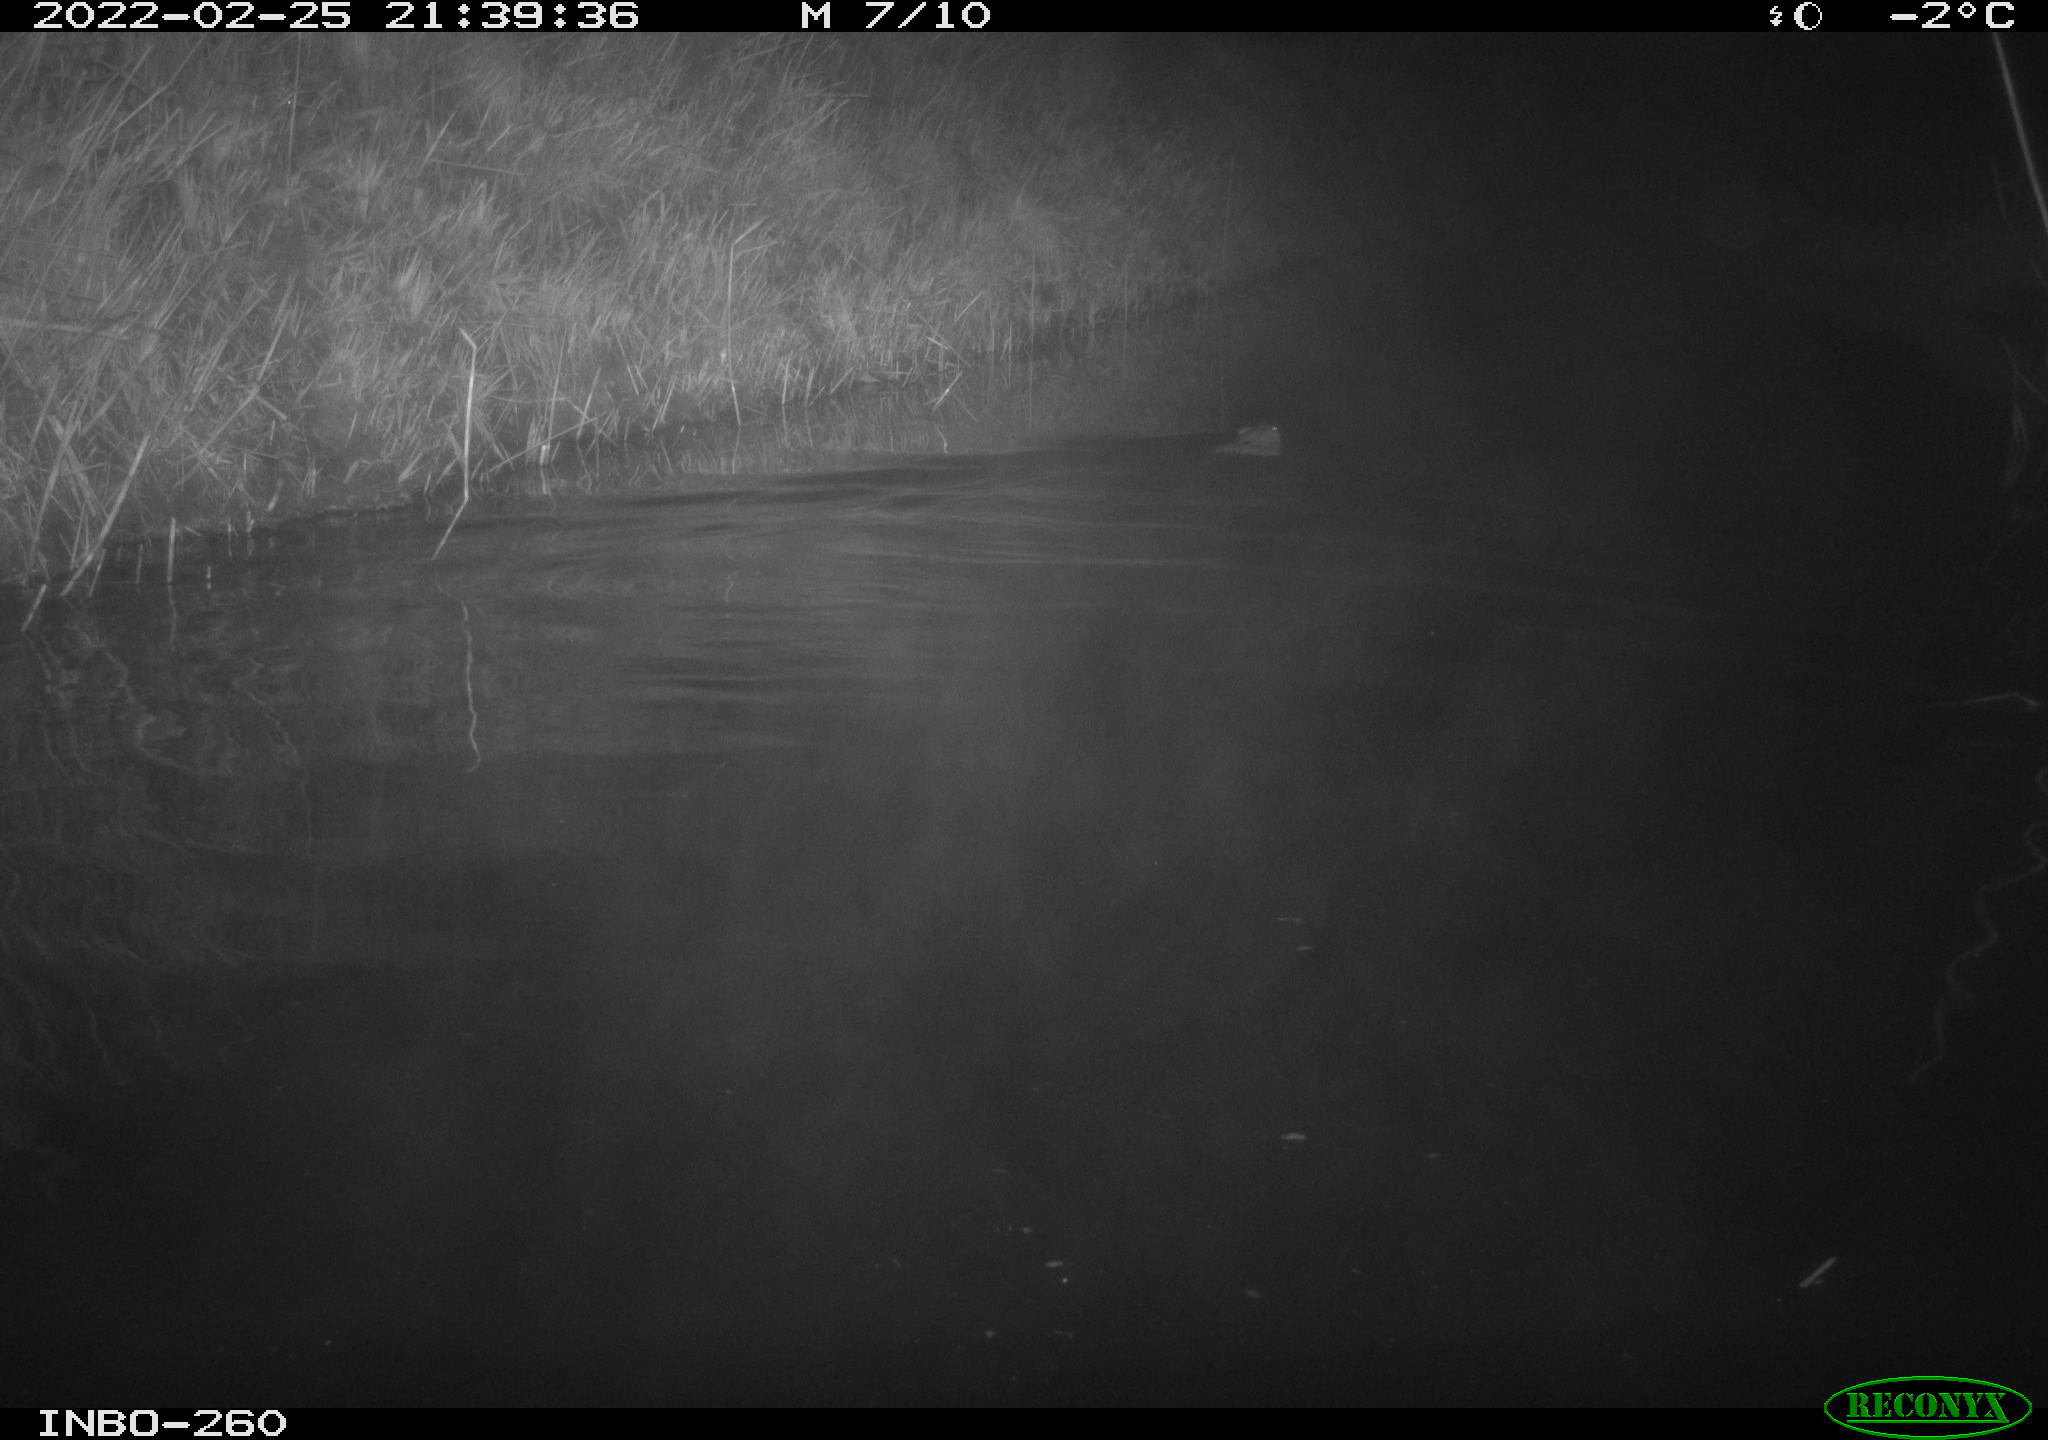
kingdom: Animalia
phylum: Chordata
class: Mammalia
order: Rodentia
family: Cricetidae
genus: Ondatra
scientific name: Ondatra zibethicus
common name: Muskrat
